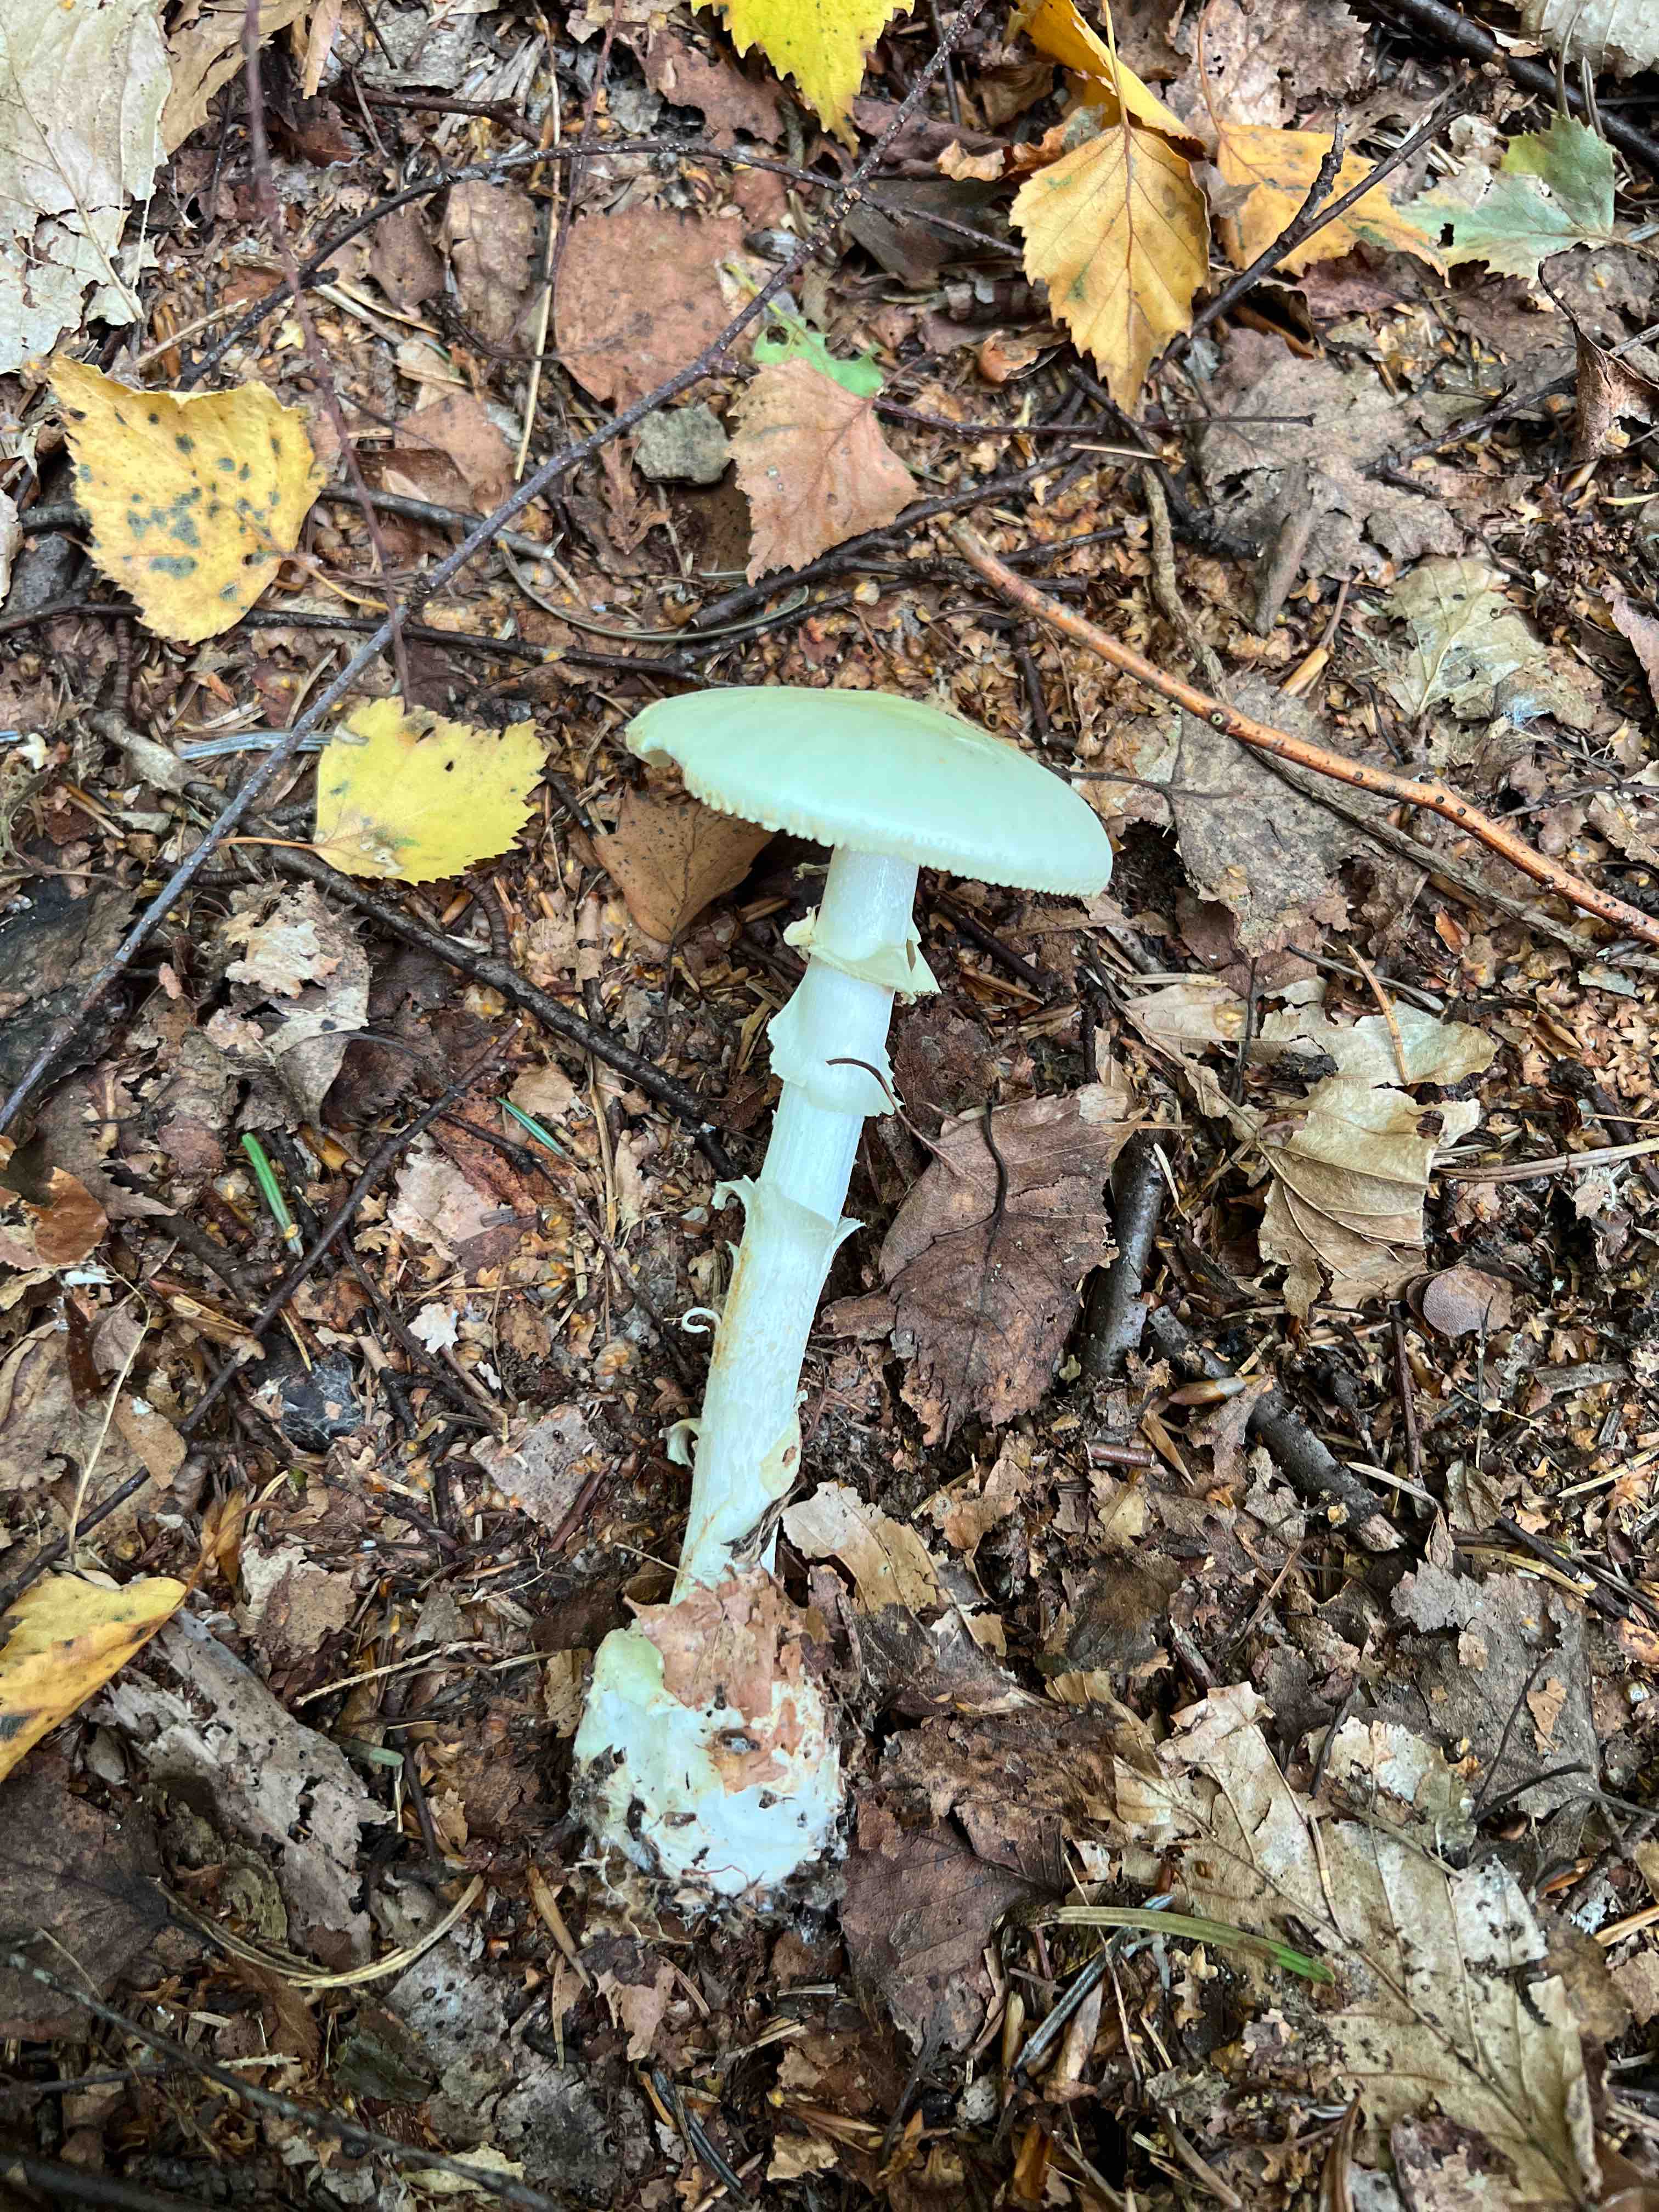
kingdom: Fungi
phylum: Basidiomycota
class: Agaricomycetes
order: Agaricales
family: Amanitaceae
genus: Amanita
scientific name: Amanita citrina
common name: kugleknoldet fluesvamp
